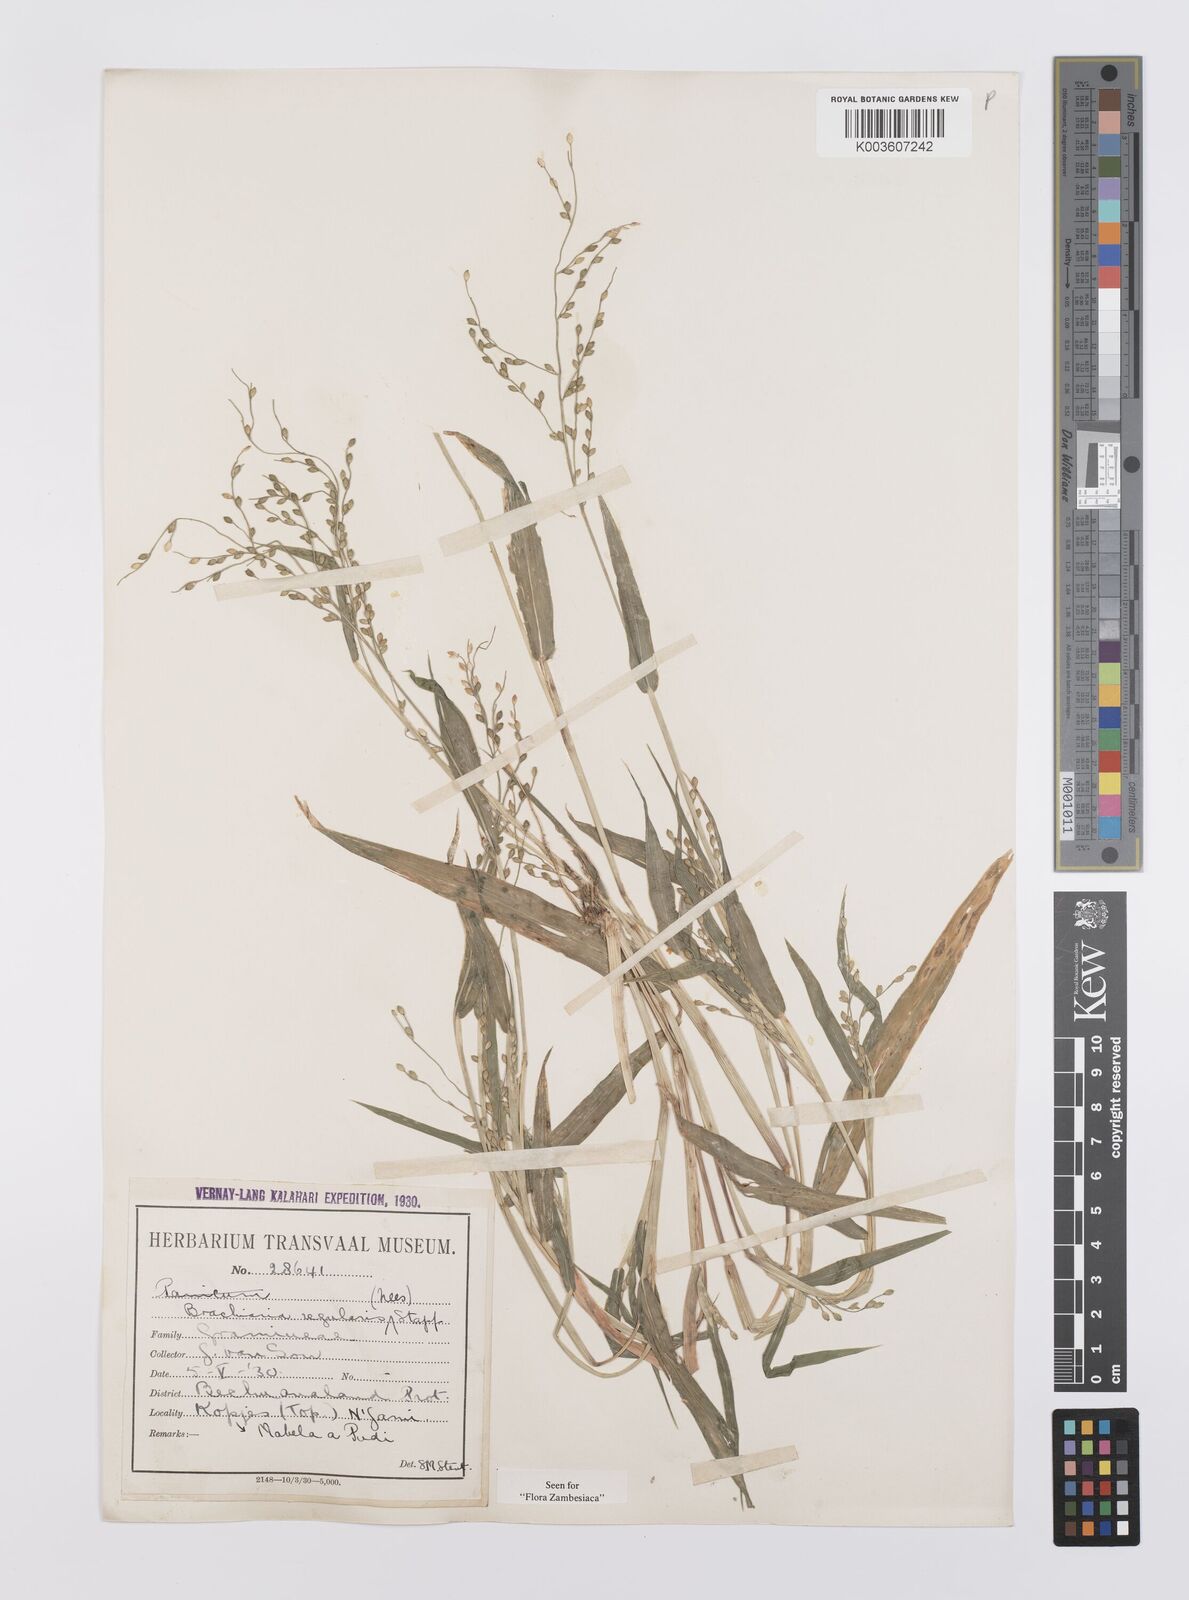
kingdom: Plantae
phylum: Tracheophyta
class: Liliopsida
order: Poales
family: Poaceae
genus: Urochloa
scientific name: Urochloa deflexa
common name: Guinea millet
